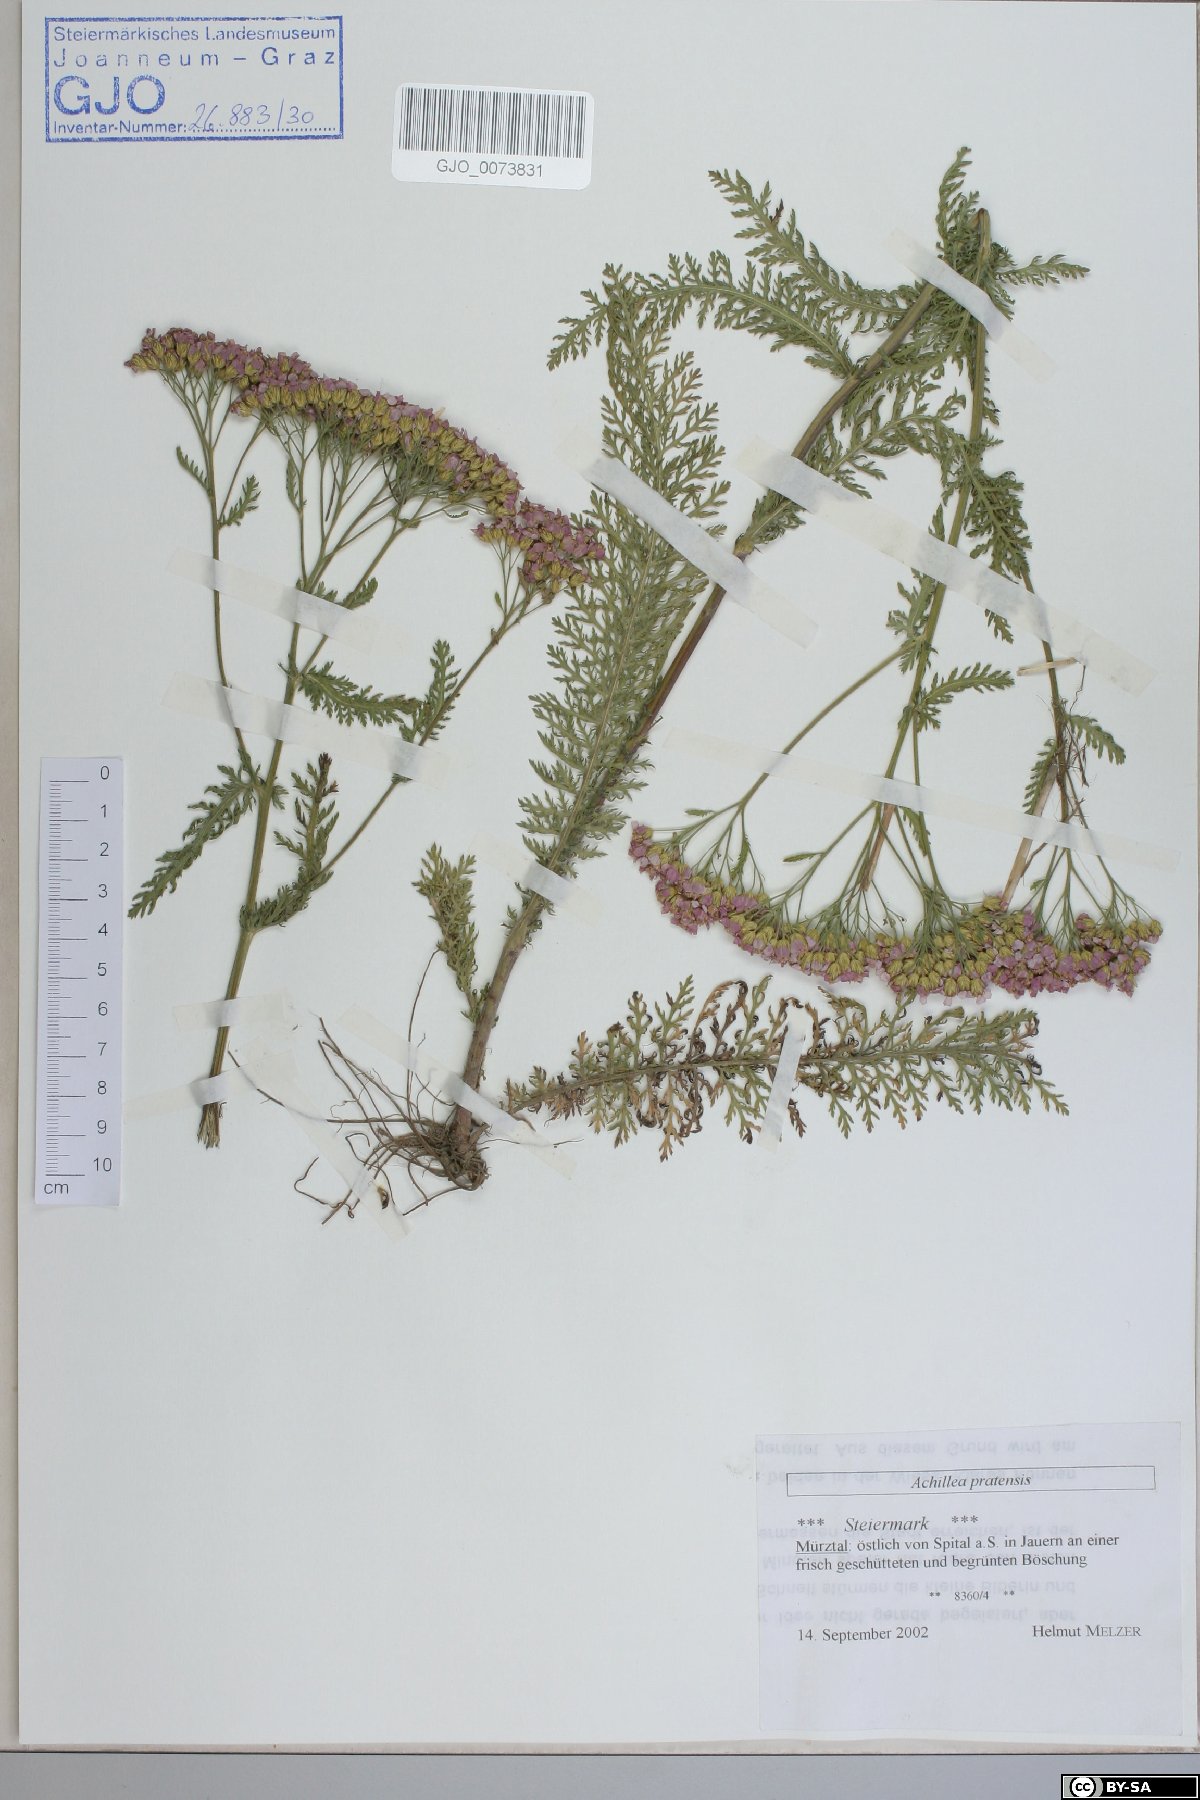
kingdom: Plantae
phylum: Tracheophyta
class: Magnoliopsida
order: Asterales
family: Asteraceae
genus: Achillea
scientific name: Achillea pratensis
